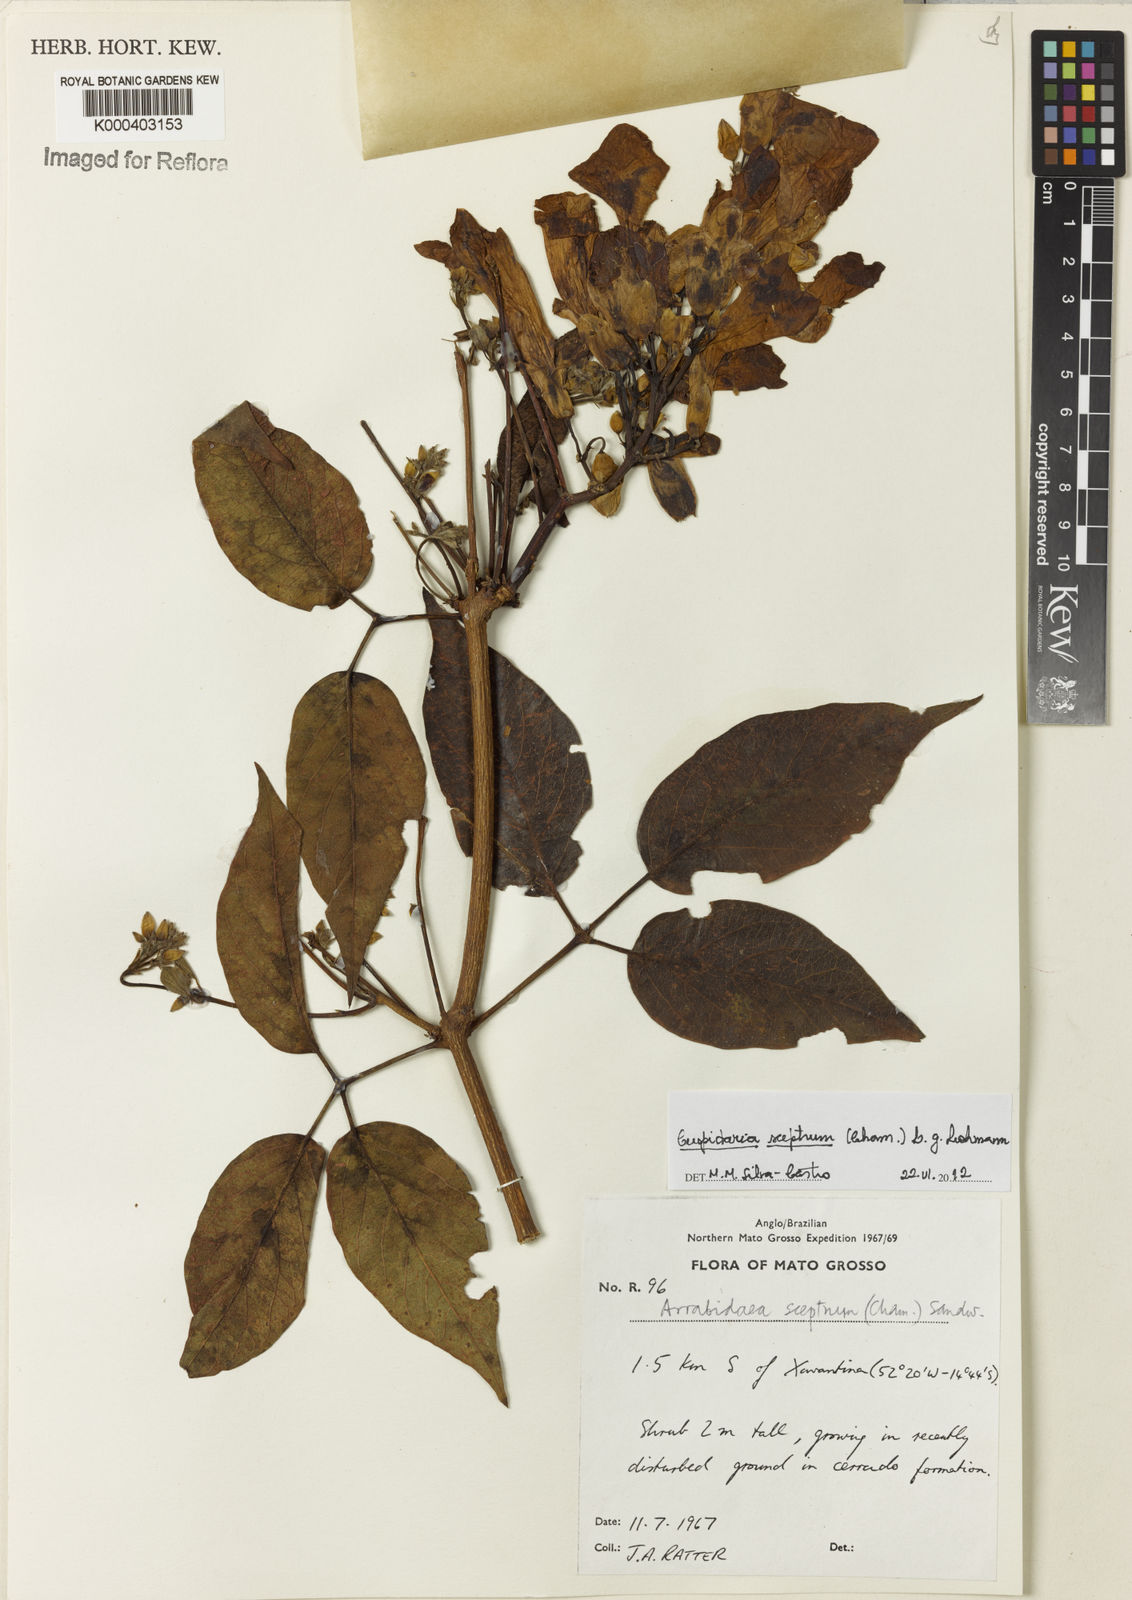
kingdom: Plantae
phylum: Tracheophyta
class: Magnoliopsida
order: Lamiales
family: Bignoniaceae
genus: Cuspidaria
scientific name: Cuspidaria sceptrum
